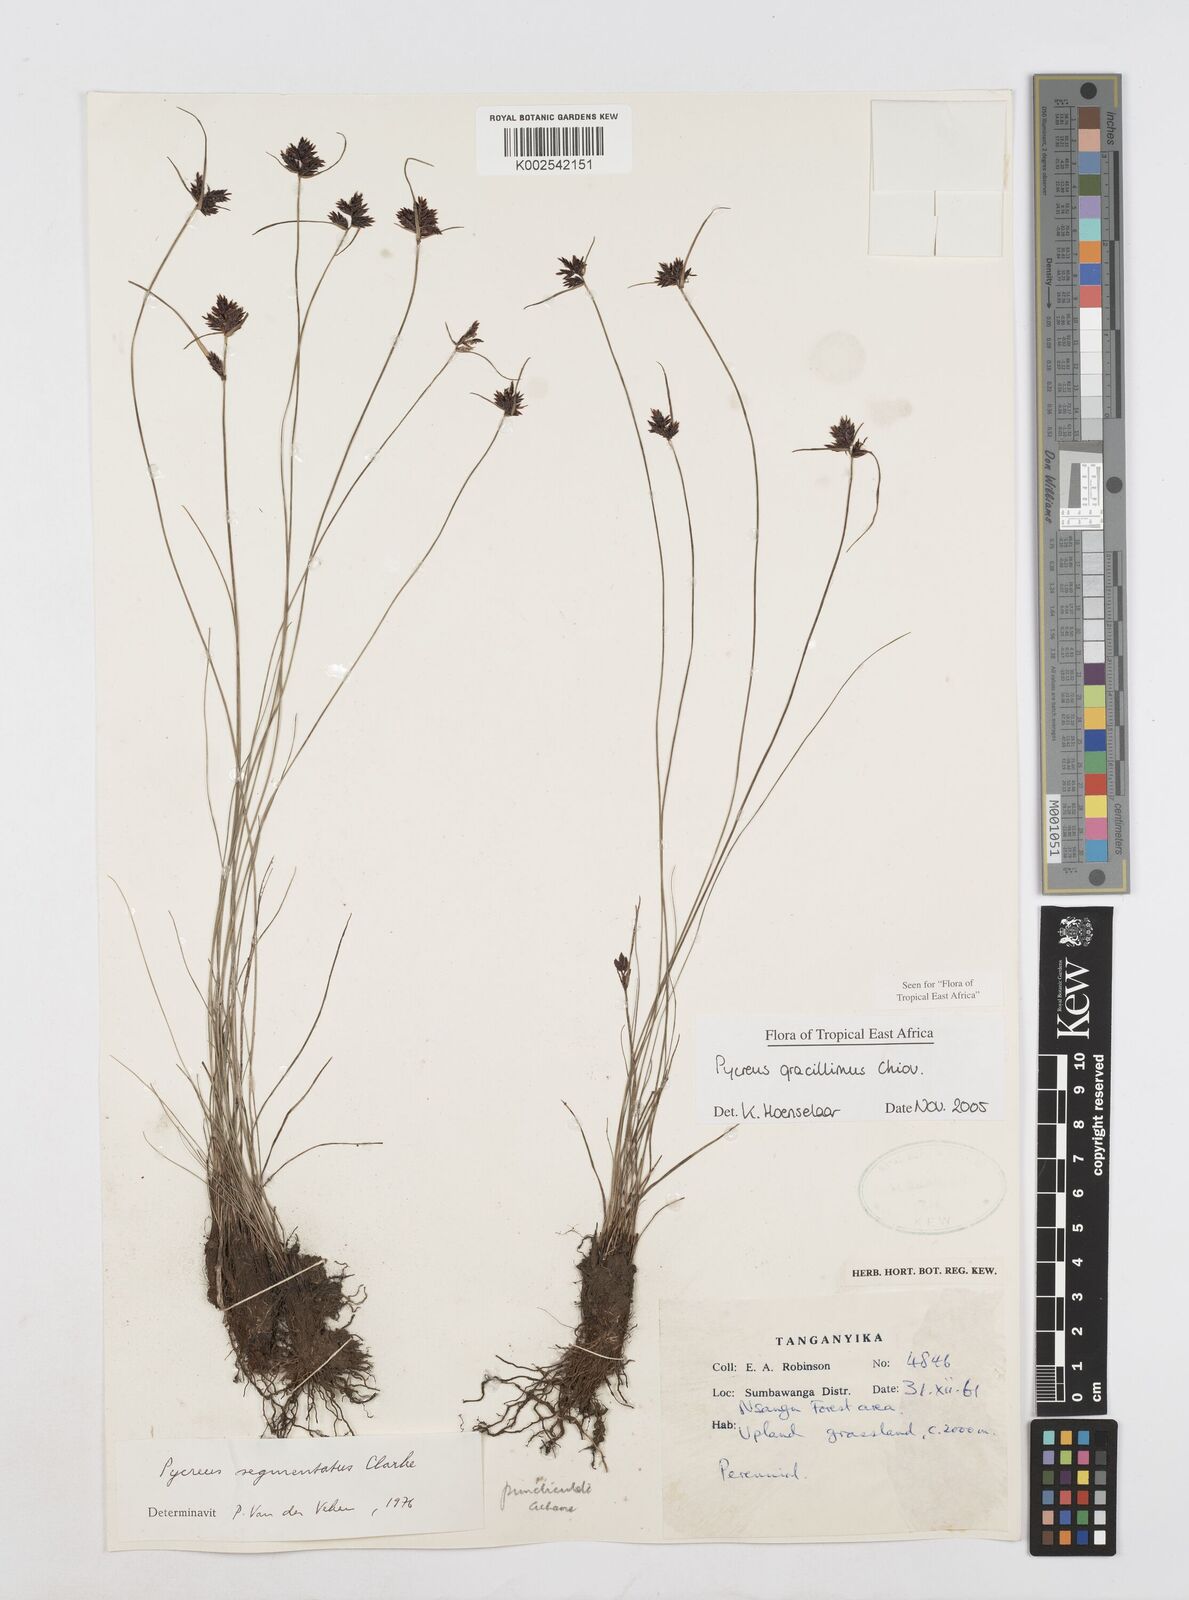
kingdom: Plantae
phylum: Tracheophyta
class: Liliopsida
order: Poales
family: Cyperaceae
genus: Cyperus
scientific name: Cyperus gracillimus
